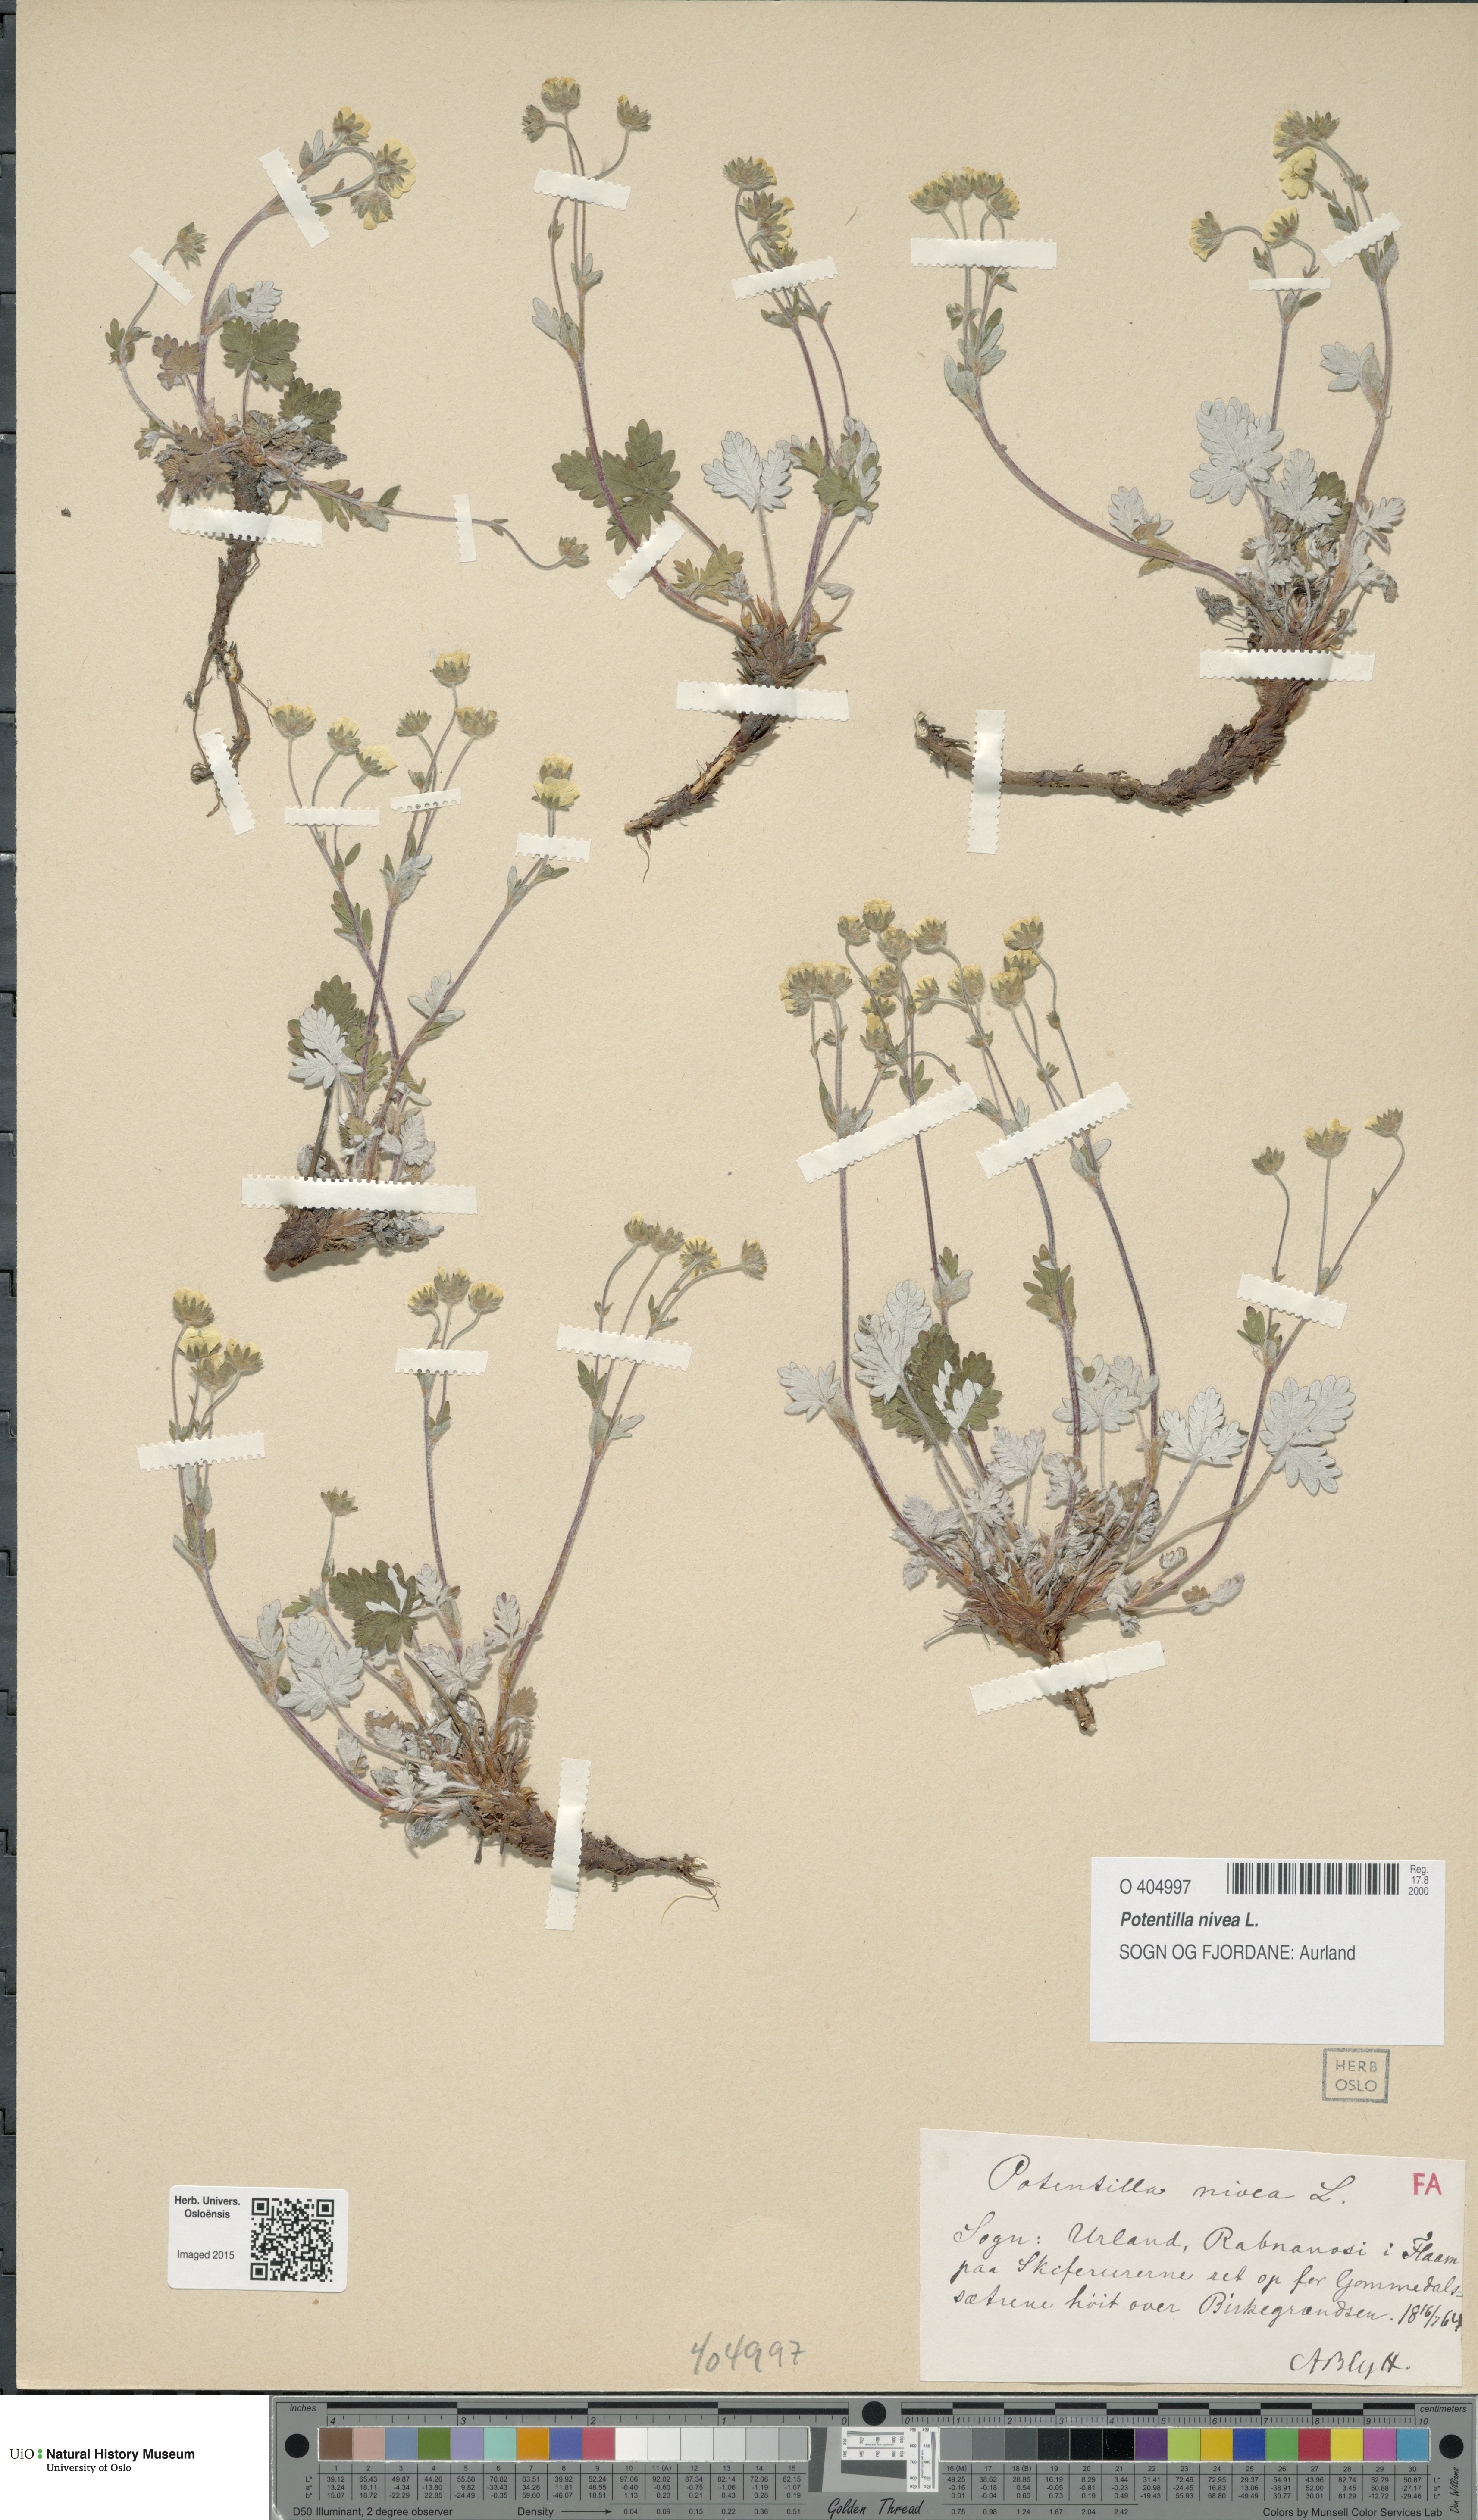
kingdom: Plantae
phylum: Tracheophyta
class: Magnoliopsida
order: Rosales
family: Rosaceae
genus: Potentilla
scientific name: Potentilla arenosa
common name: Bluff cinquefoil
